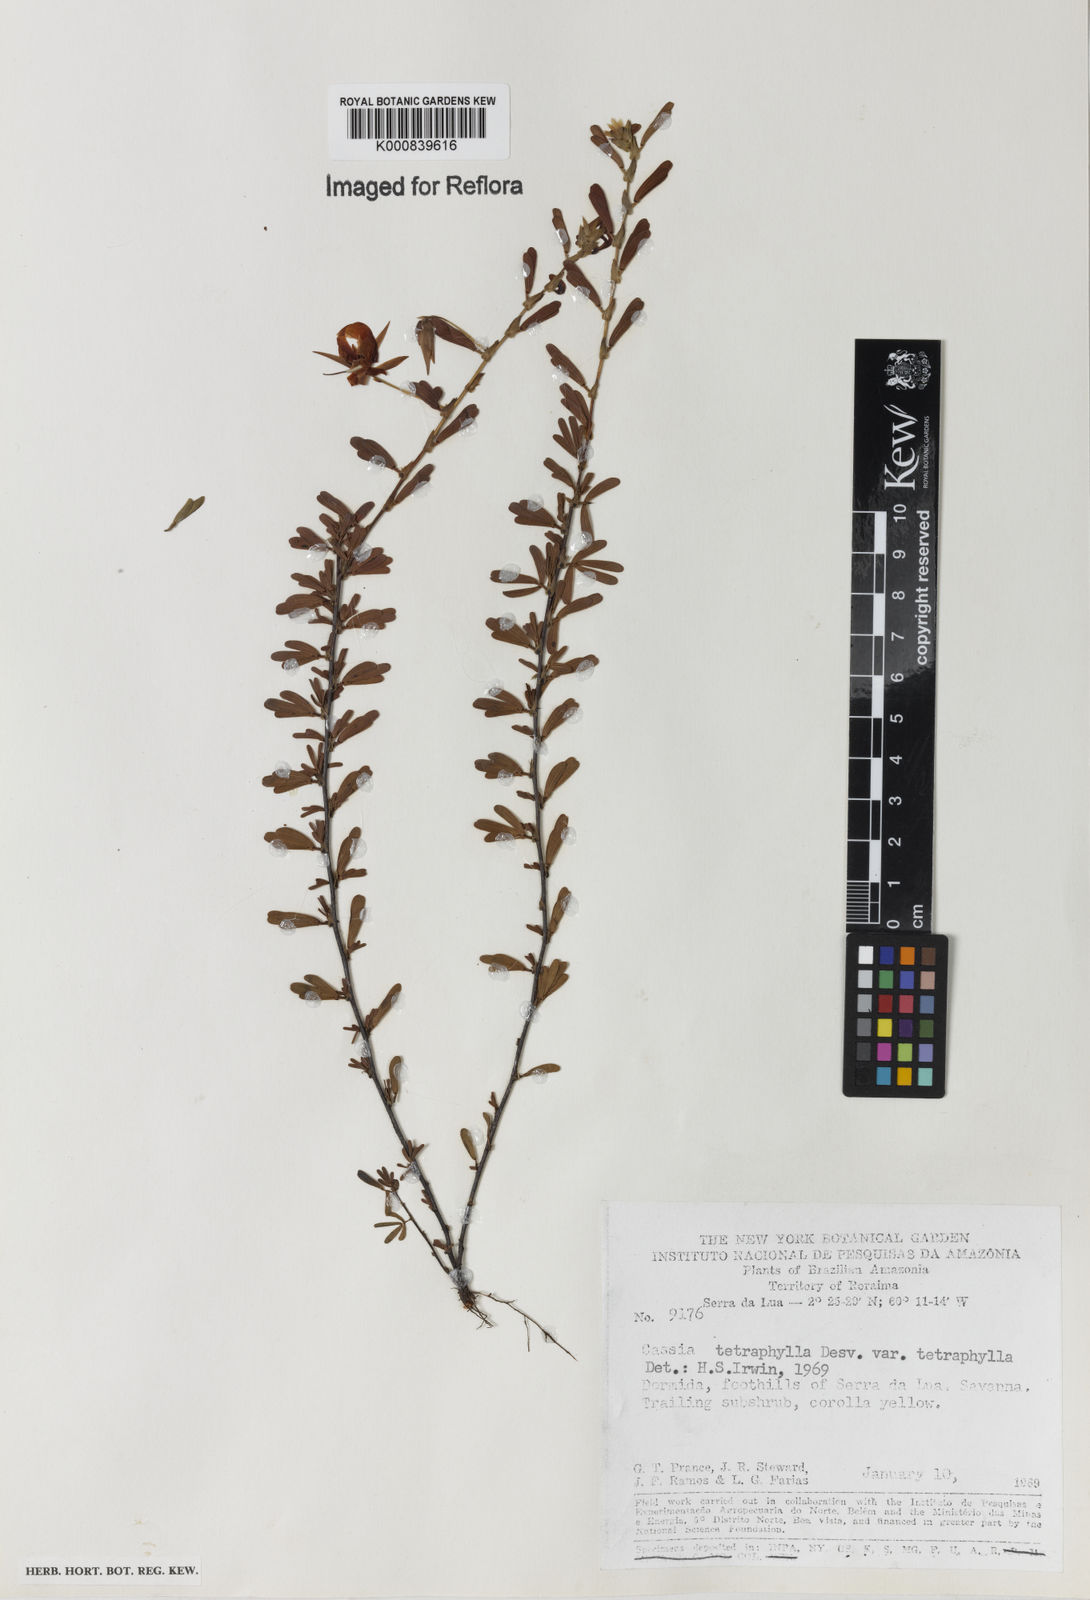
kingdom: Plantae
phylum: Tracheophyta
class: Magnoliopsida
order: Fabales
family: Fabaceae
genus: Chamaecrista
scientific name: Chamaecrista desvauxii
